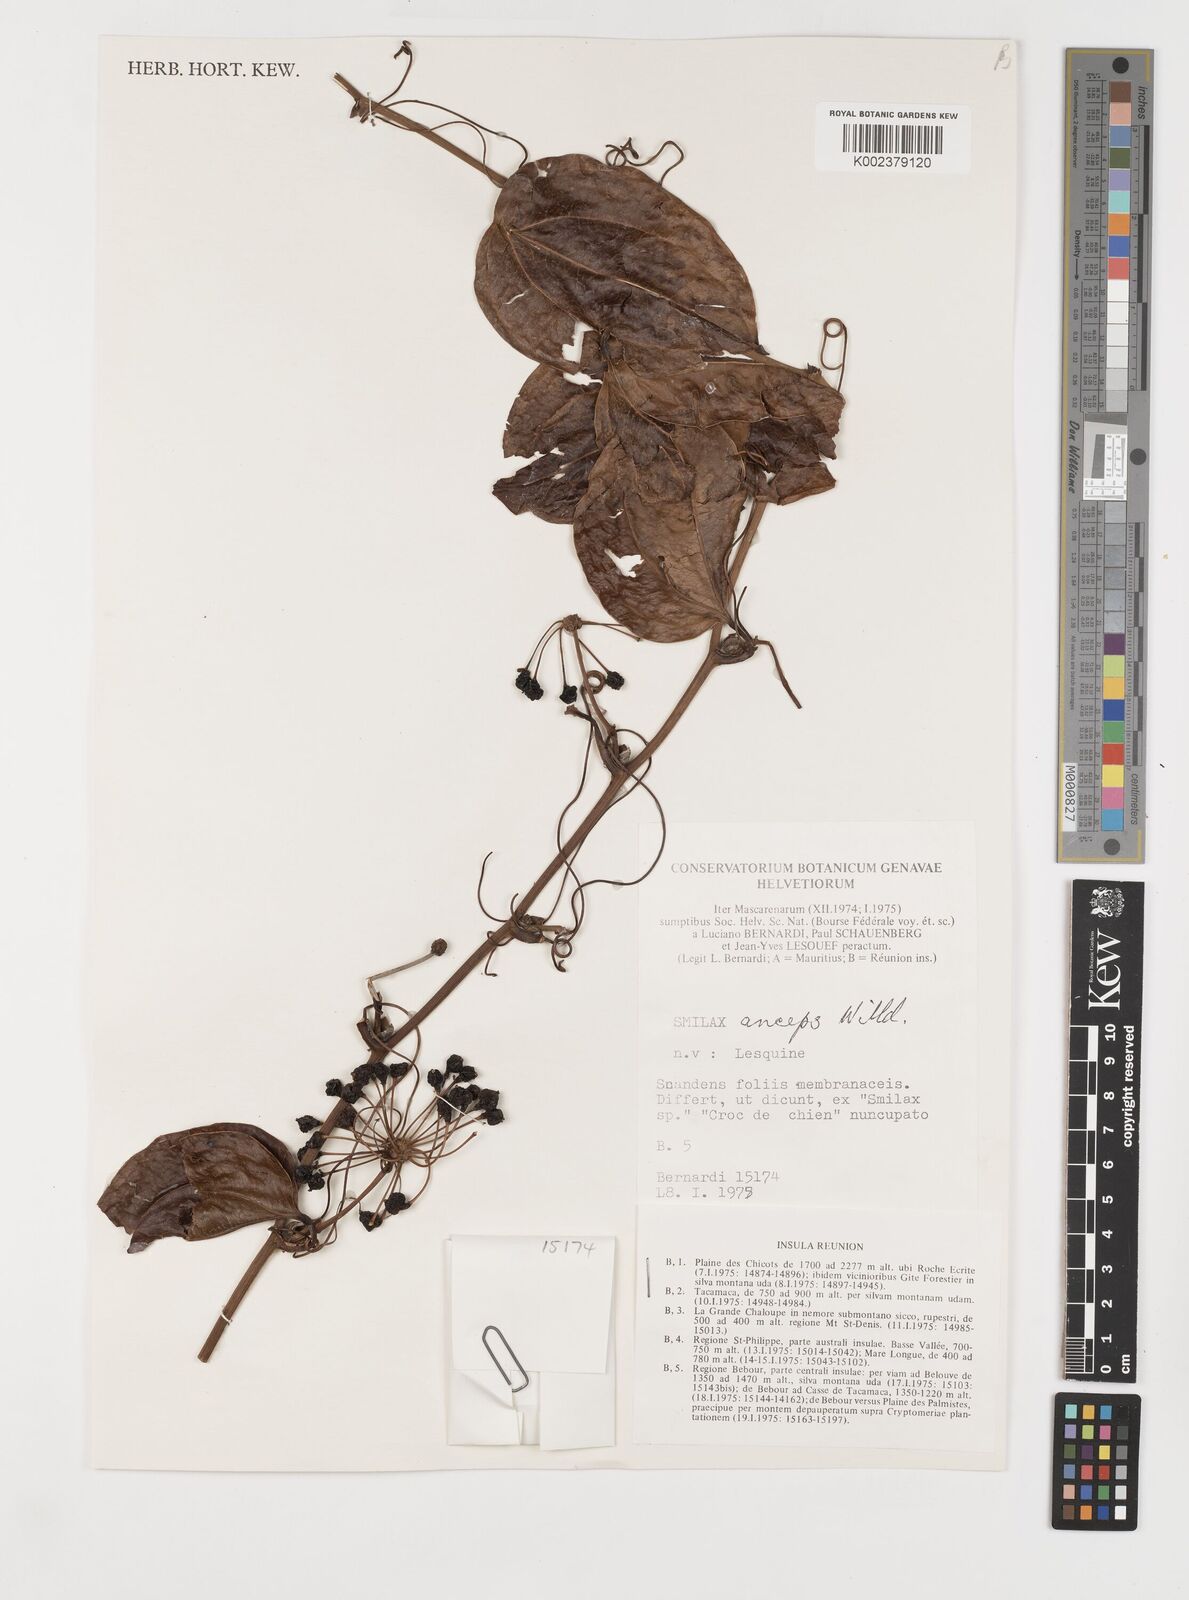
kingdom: Plantae
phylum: Tracheophyta
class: Liliopsida
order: Liliales
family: Smilacaceae
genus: Smilax
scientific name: Smilax anceps
